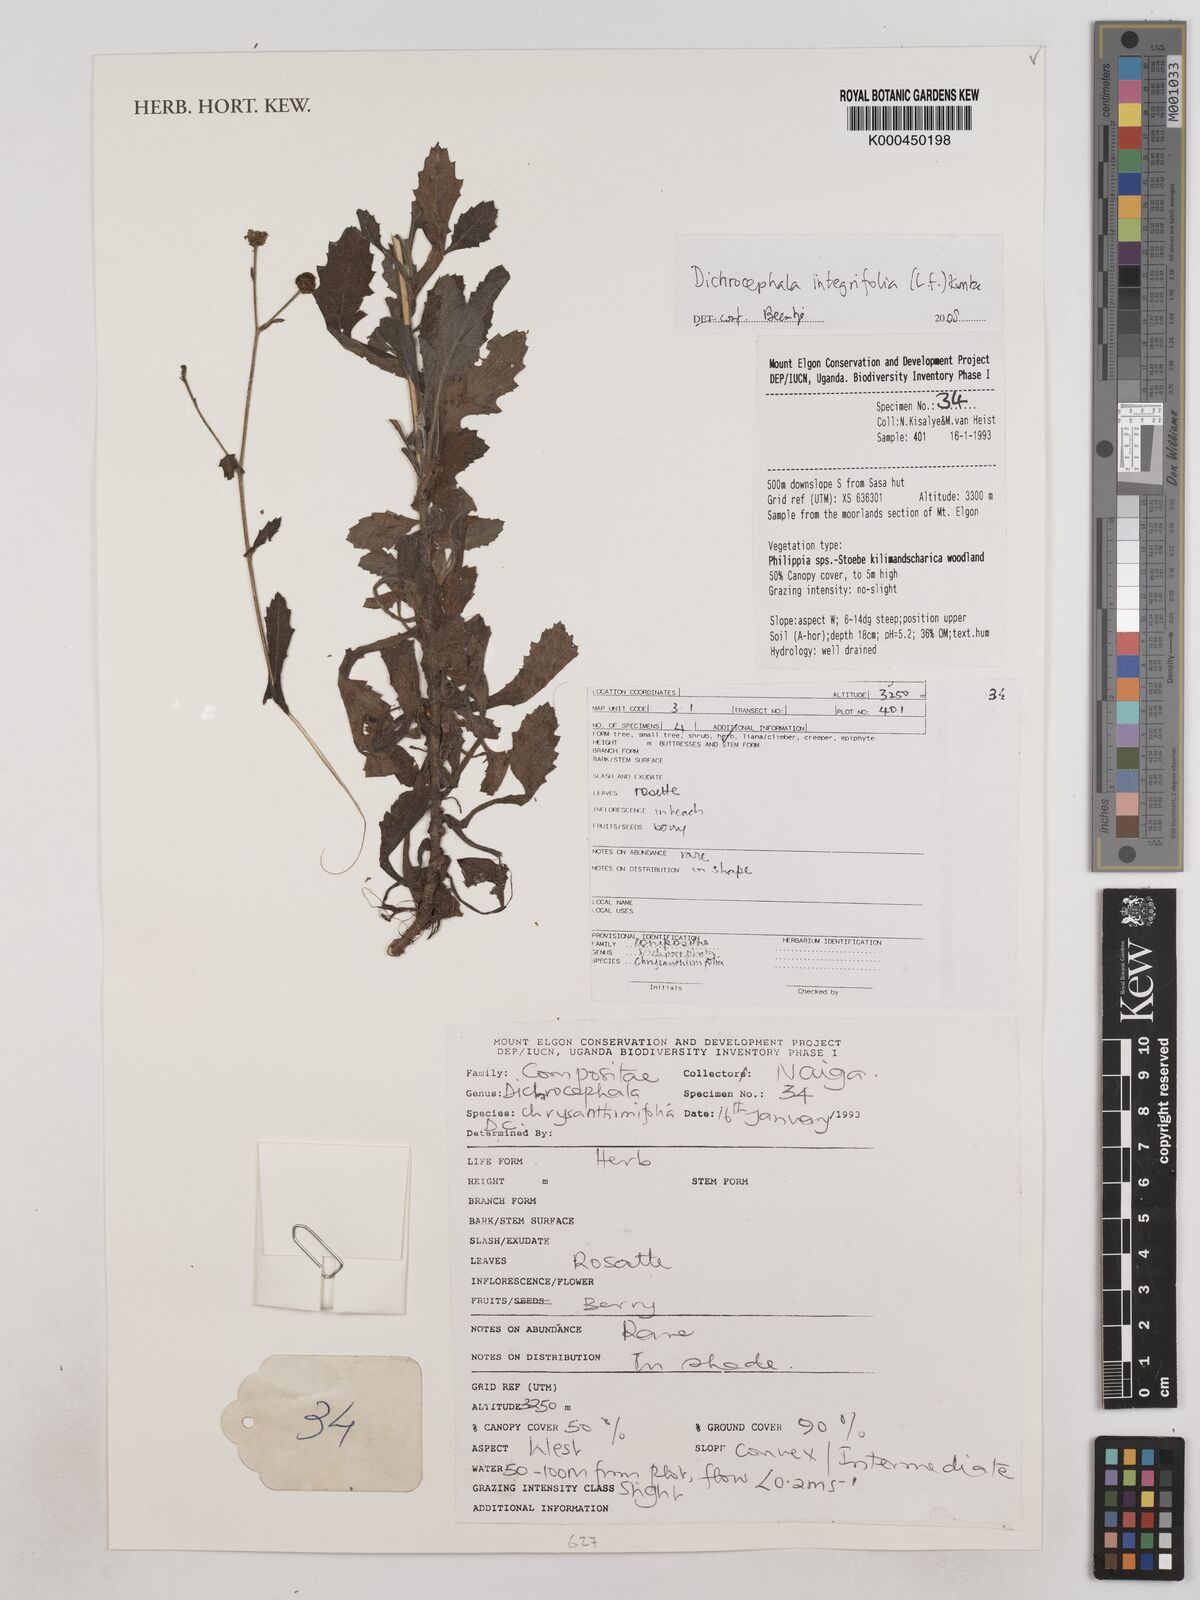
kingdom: Plantae
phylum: Tracheophyta
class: Magnoliopsida
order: Asterales
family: Asteraceae
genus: Dichrocephala
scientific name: Dichrocephala integrifolia
